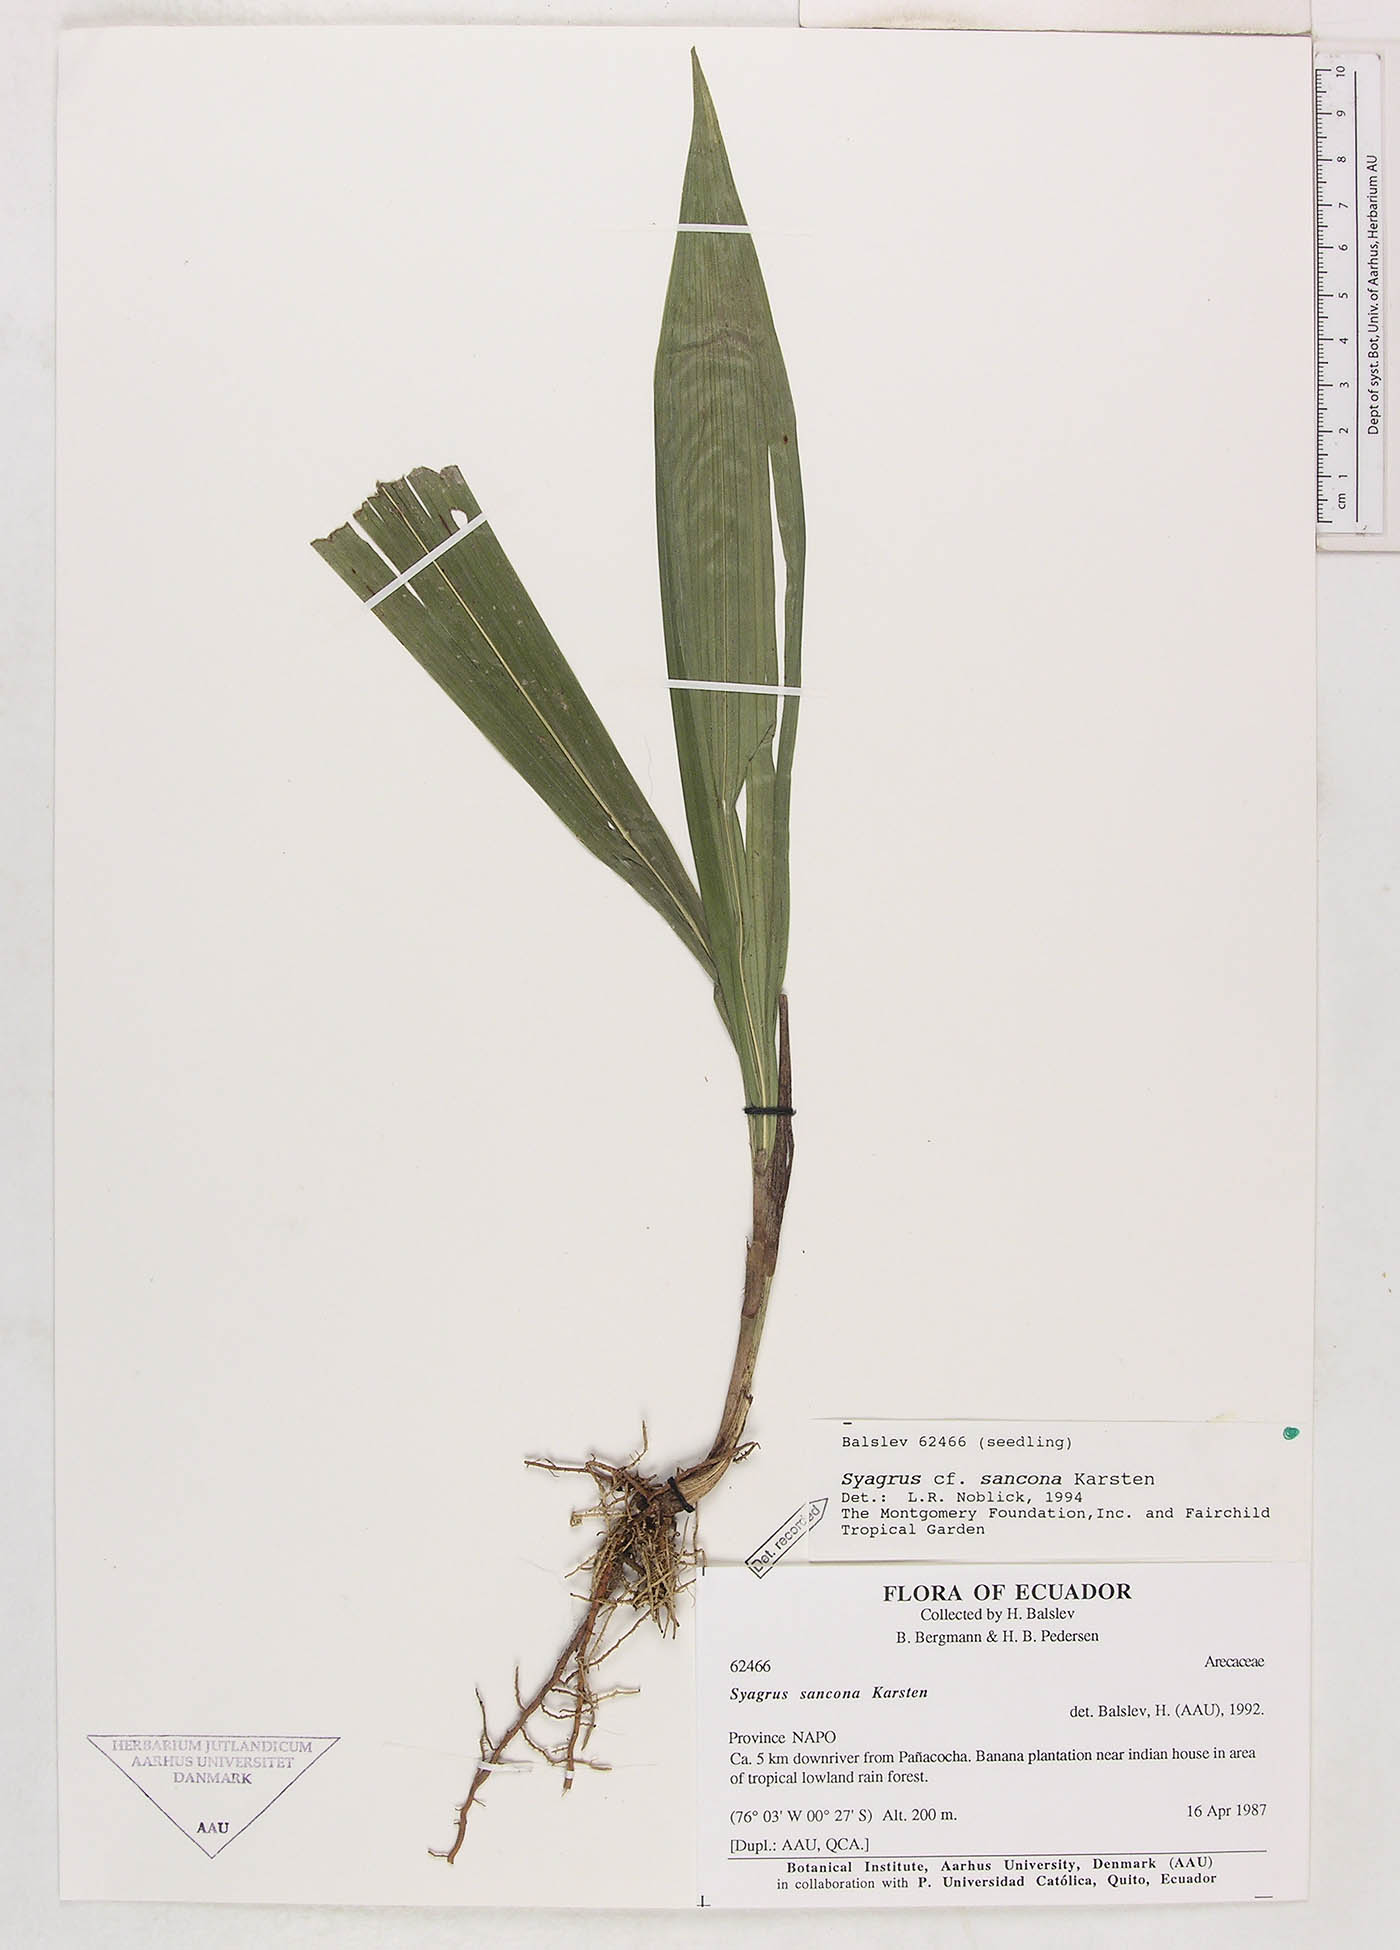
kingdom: Plantae
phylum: Tracheophyta
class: Liliopsida
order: Arecales
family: Arecaceae
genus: Syagrus
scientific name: Syagrus sancona
